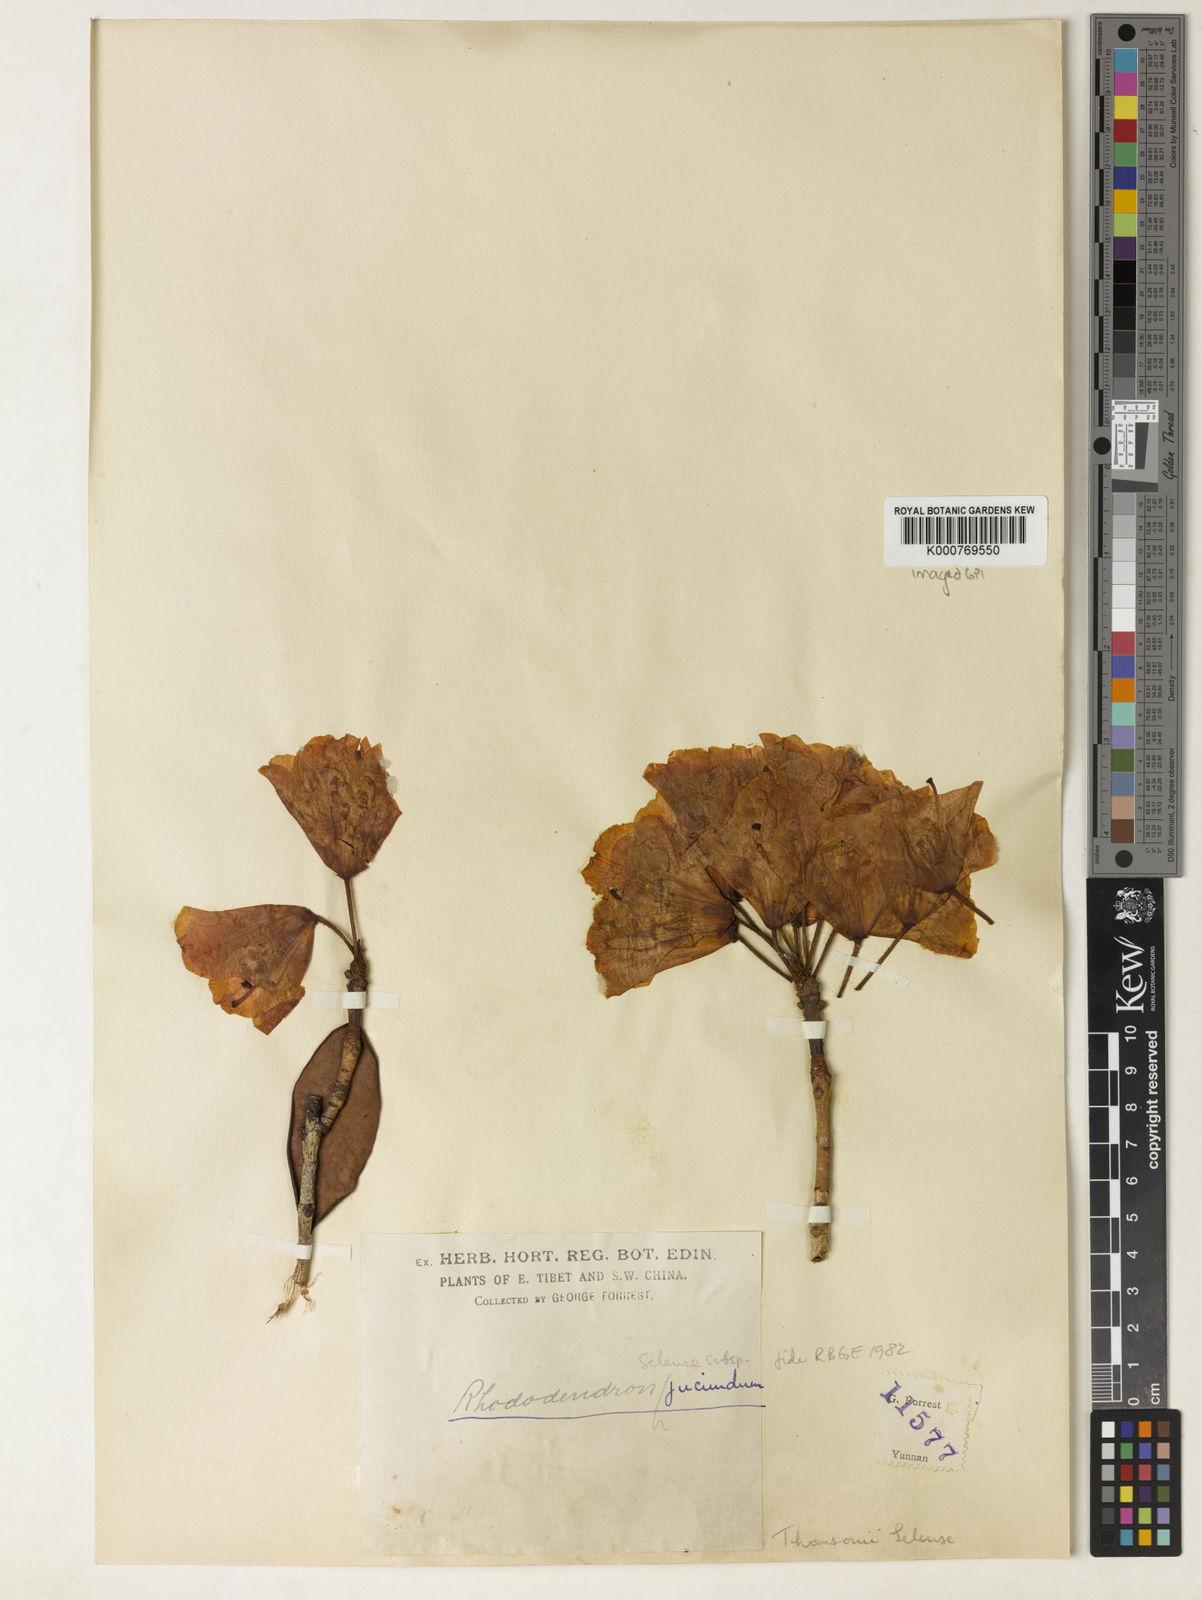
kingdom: Plantae
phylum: Tracheophyta
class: Magnoliopsida
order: Ericales
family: Ericaceae
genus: Rhododendron
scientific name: Rhododendron selense
